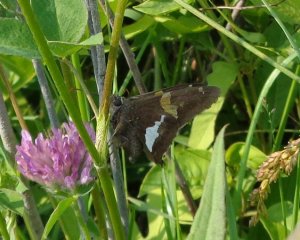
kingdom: Animalia
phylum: Arthropoda
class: Insecta
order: Lepidoptera
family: Hesperiidae
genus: Epargyreus
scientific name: Epargyreus clarus
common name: Silver-spotted Skipper
